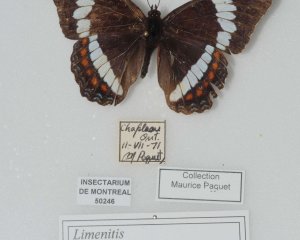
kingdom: Animalia
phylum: Arthropoda
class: Insecta
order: Lepidoptera
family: Nymphalidae
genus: Danaus
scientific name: Danaus plexippus
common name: Monarch
